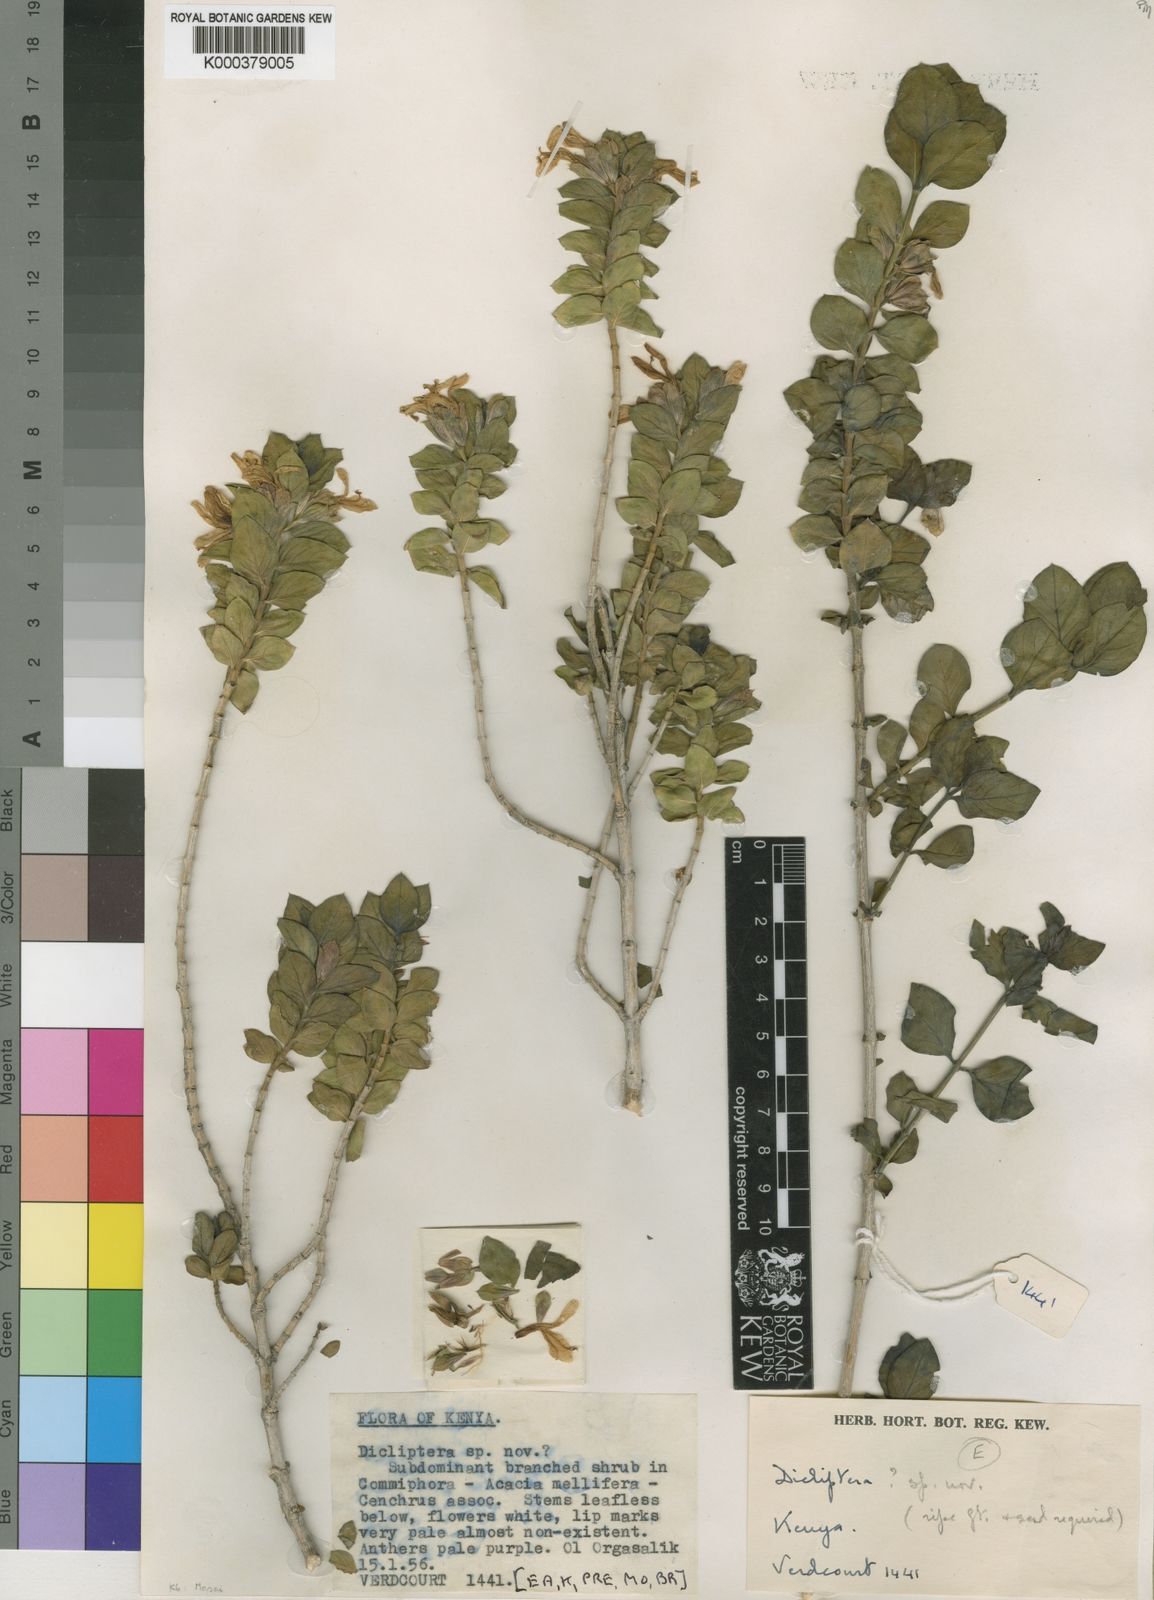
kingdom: Plantae
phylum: Tracheophyta
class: Magnoliopsida
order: Lamiales
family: Acanthaceae
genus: Dicliptera
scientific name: Dicliptera cicatricosa
